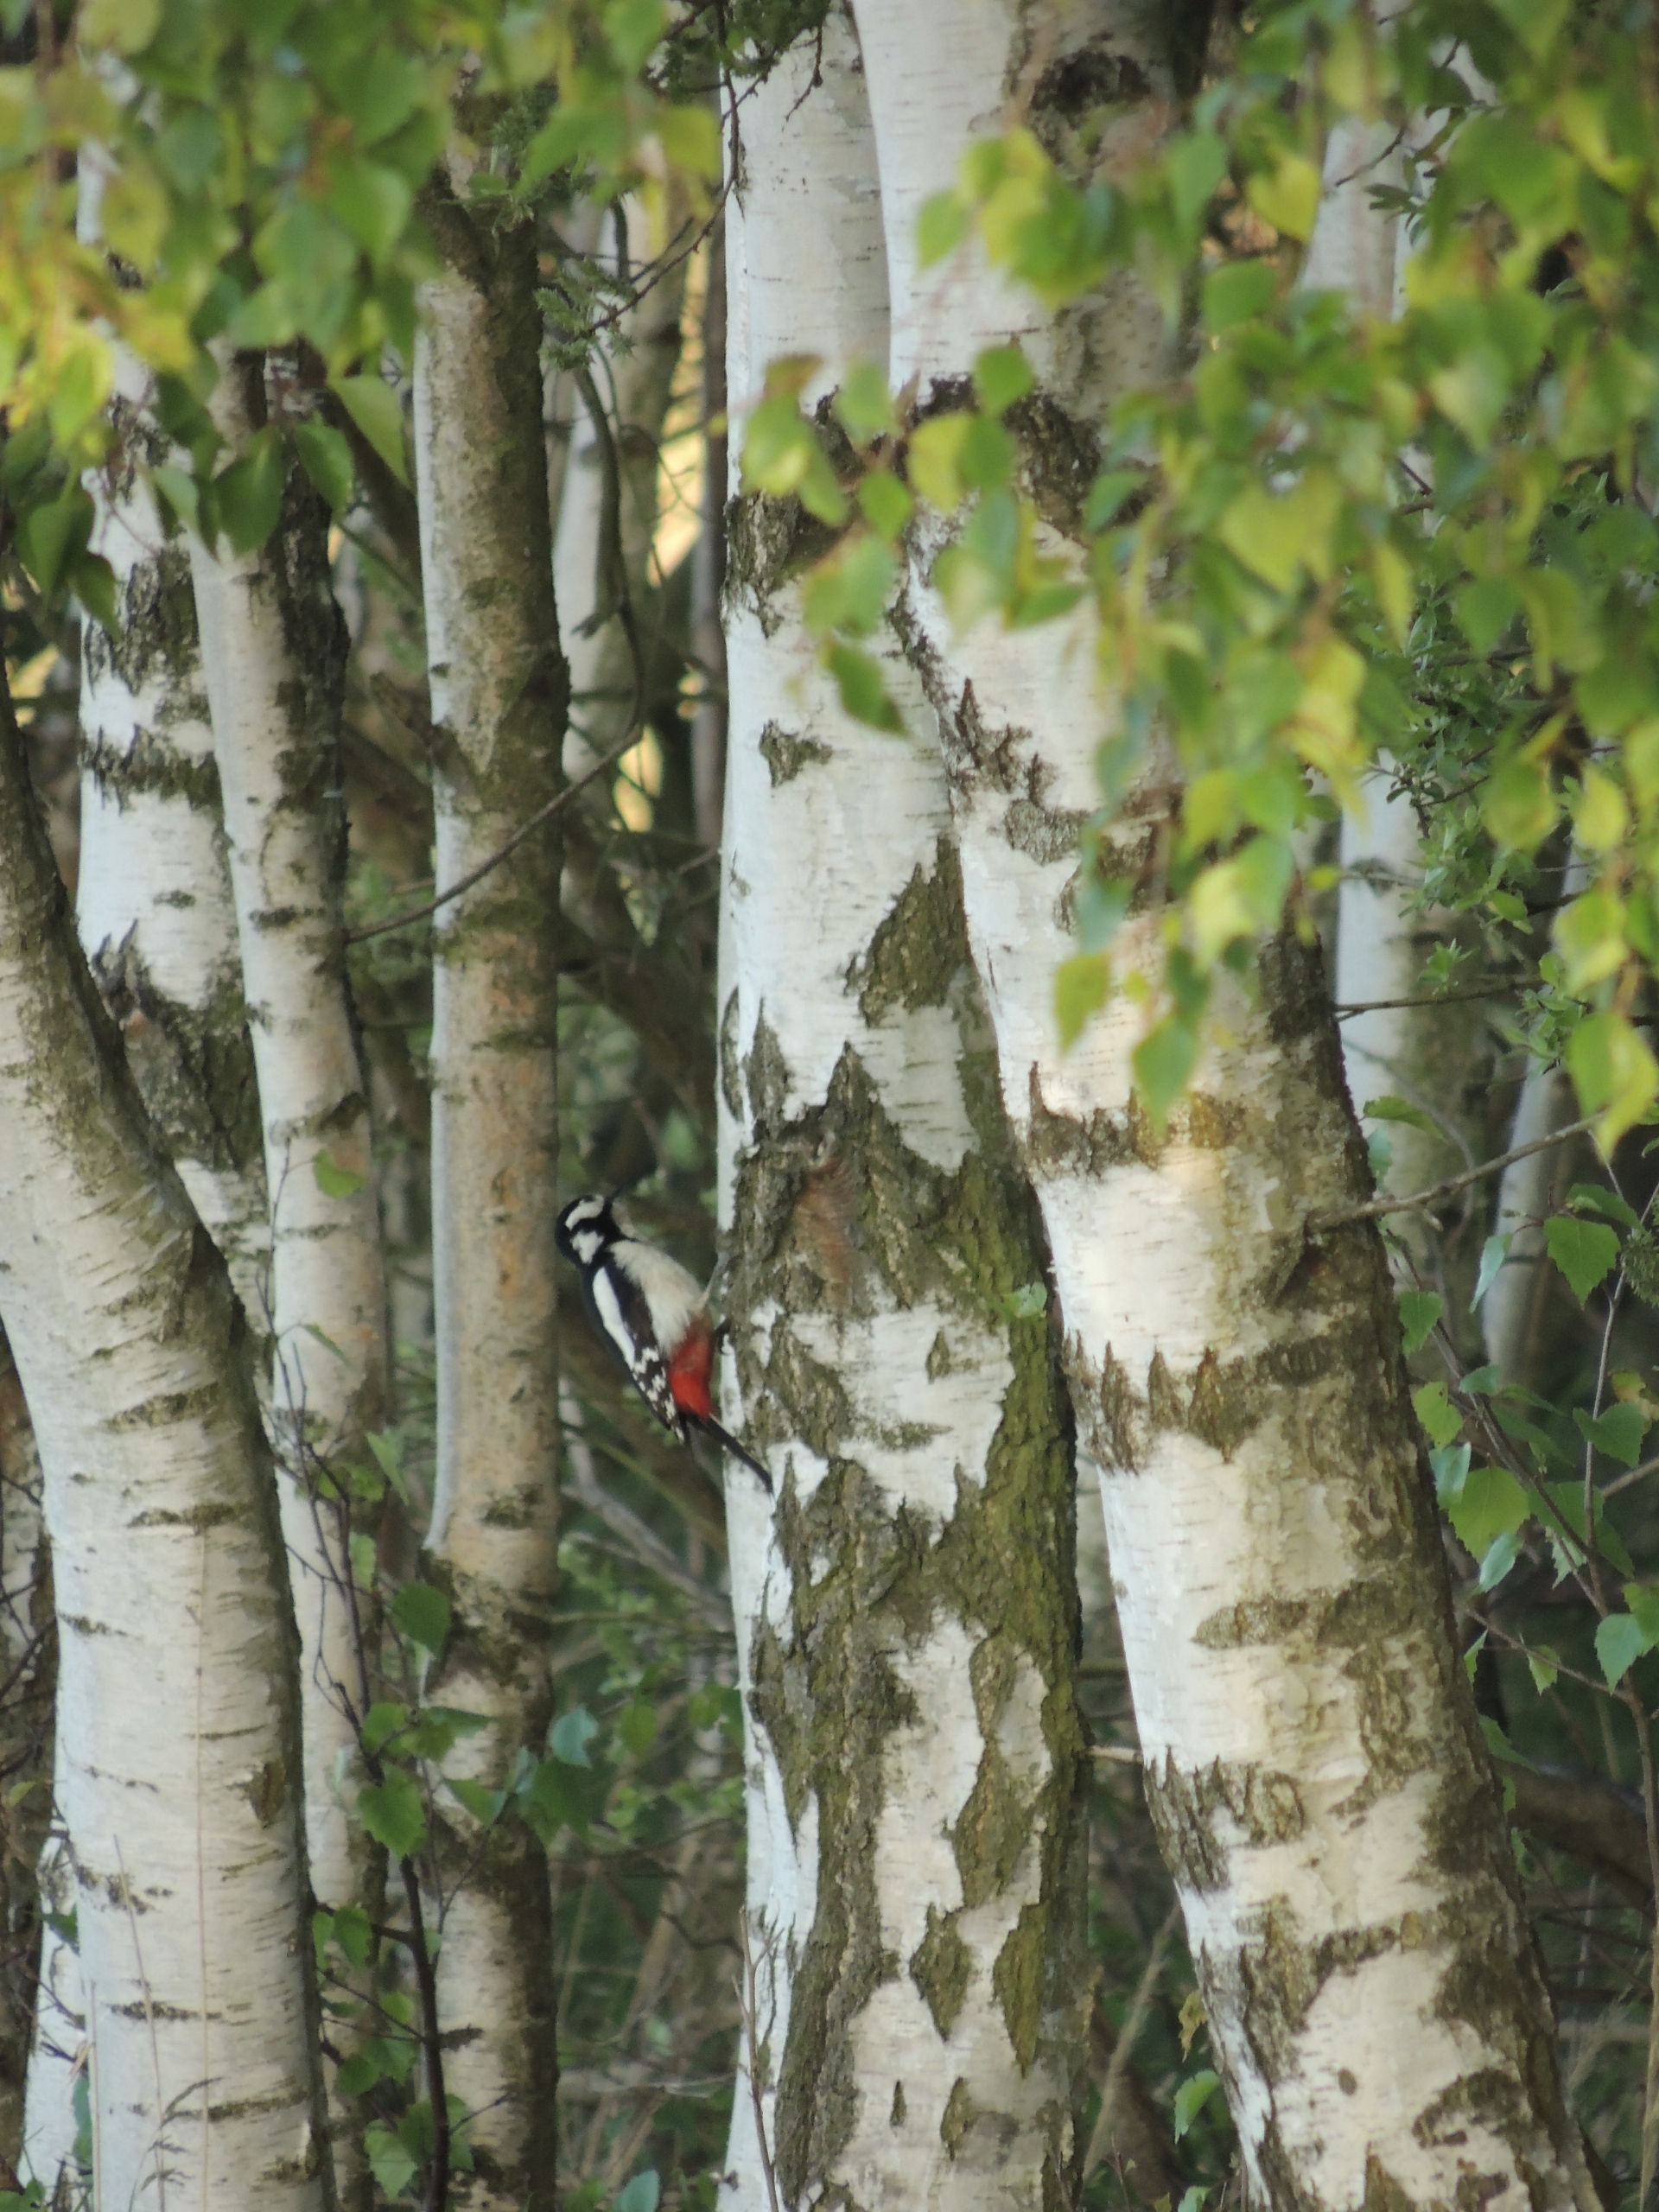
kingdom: Animalia
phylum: Chordata
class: Aves
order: Piciformes
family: Picidae
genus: Dendrocopos
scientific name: Dendrocopos major
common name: Stor flagspætte
